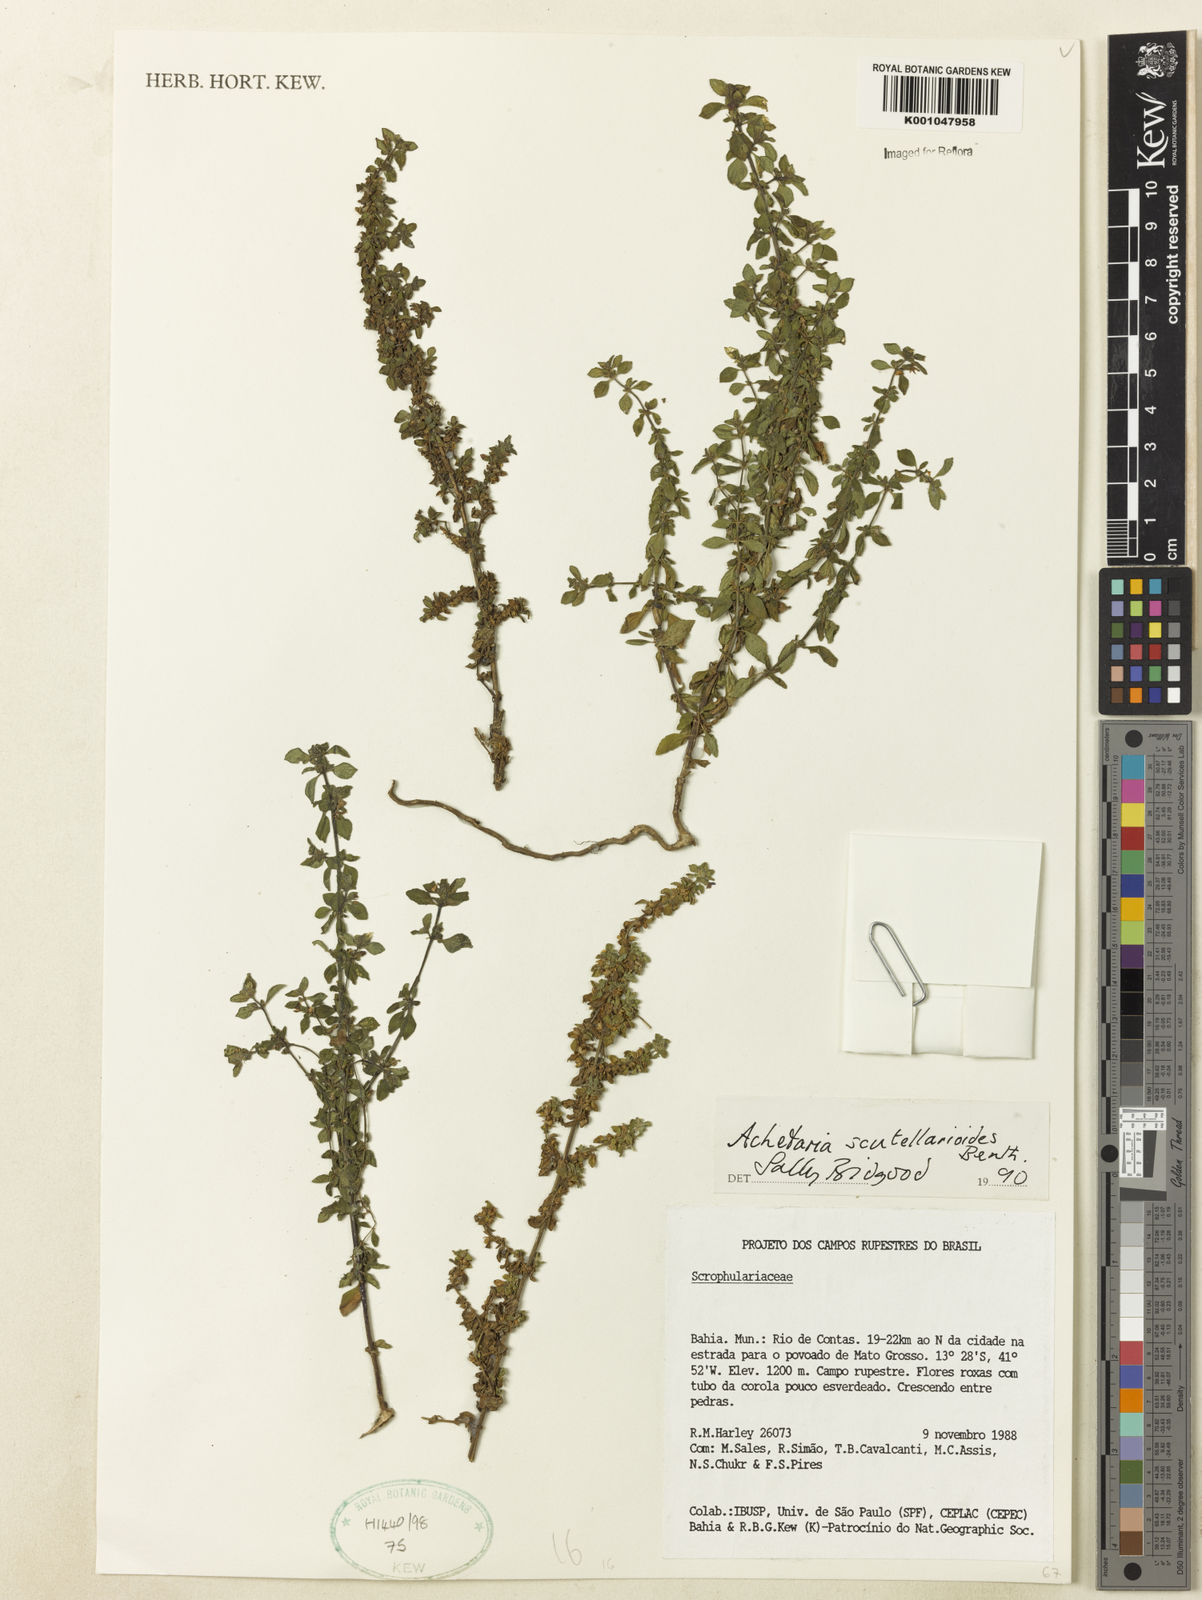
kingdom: Plantae
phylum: Tracheophyta
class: Magnoliopsida
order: Lamiales
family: Plantaginaceae
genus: Matourea
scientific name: Matourea scutellarioides
